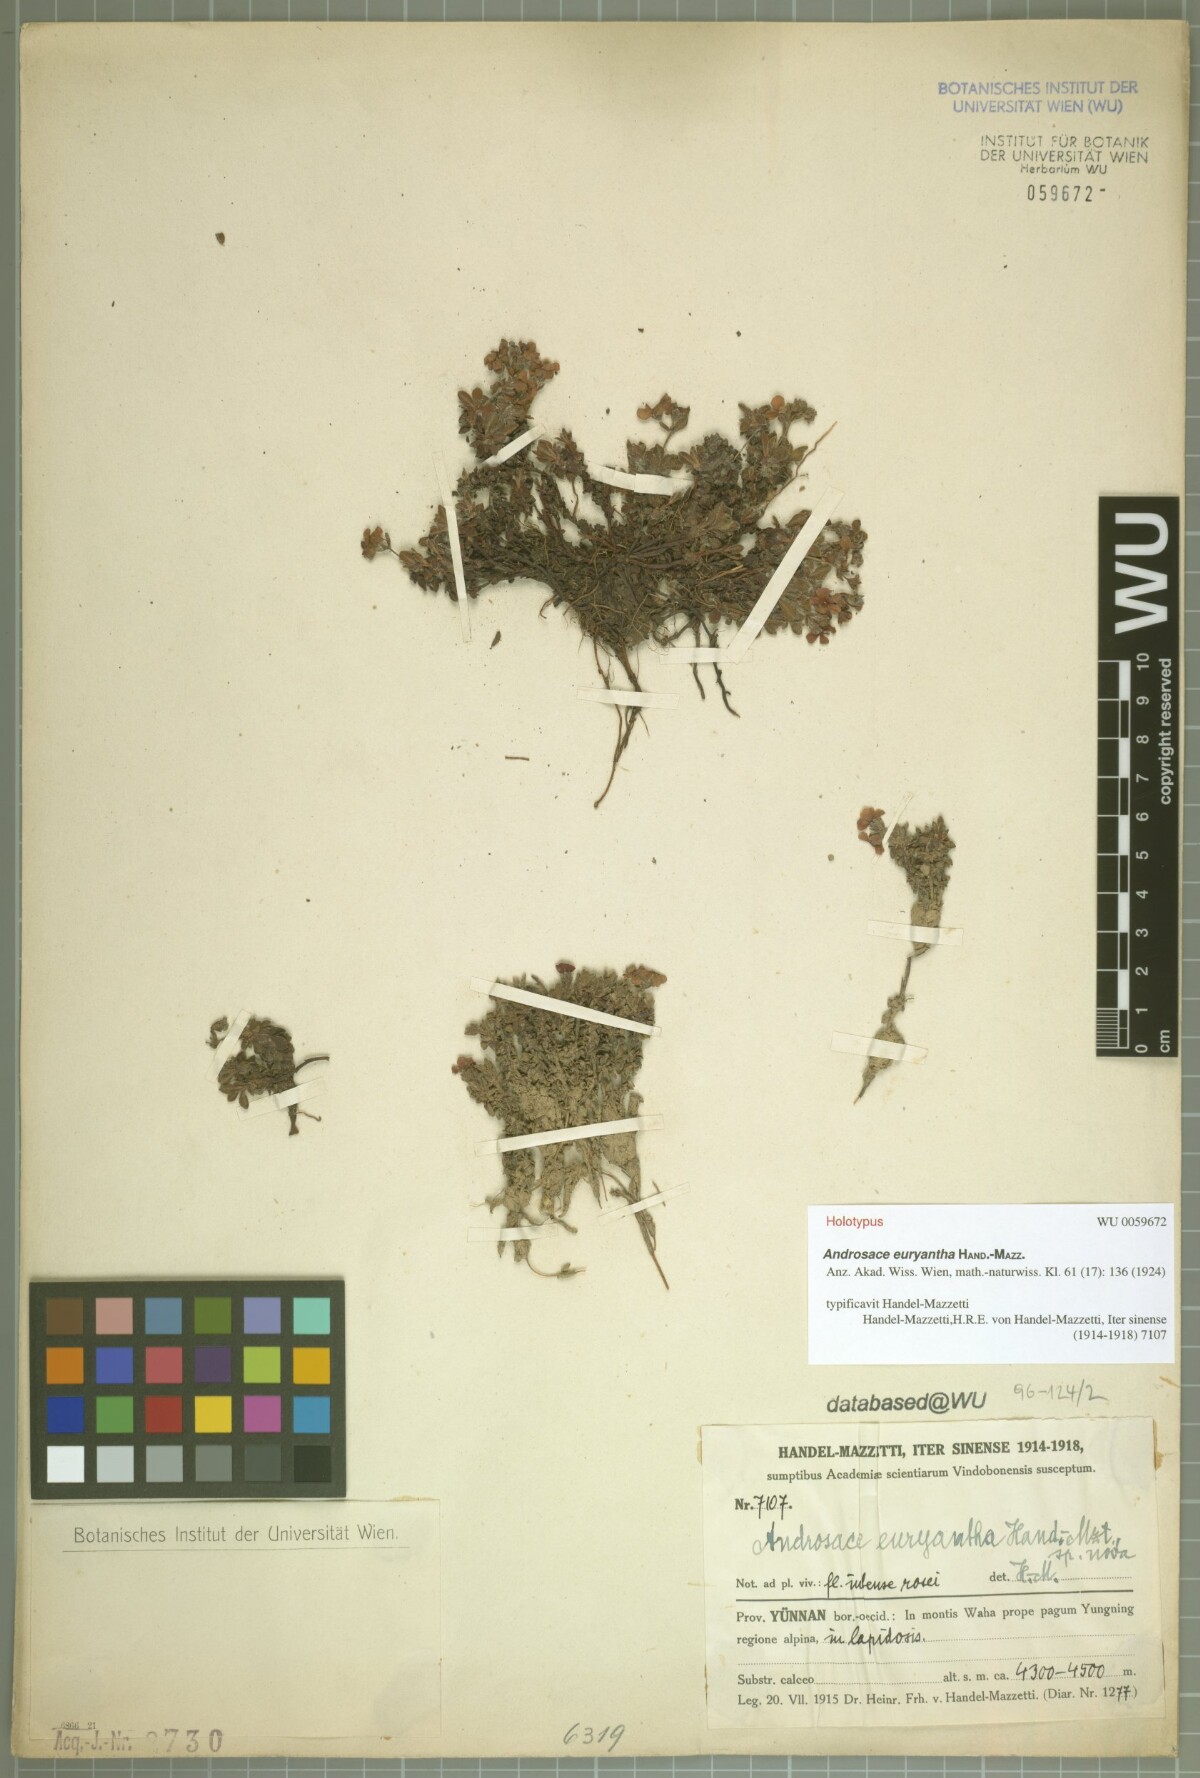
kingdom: Plantae
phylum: Tracheophyta
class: Magnoliopsida
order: Ericales
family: Primulaceae
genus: Androsace
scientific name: Androsace euryantha
